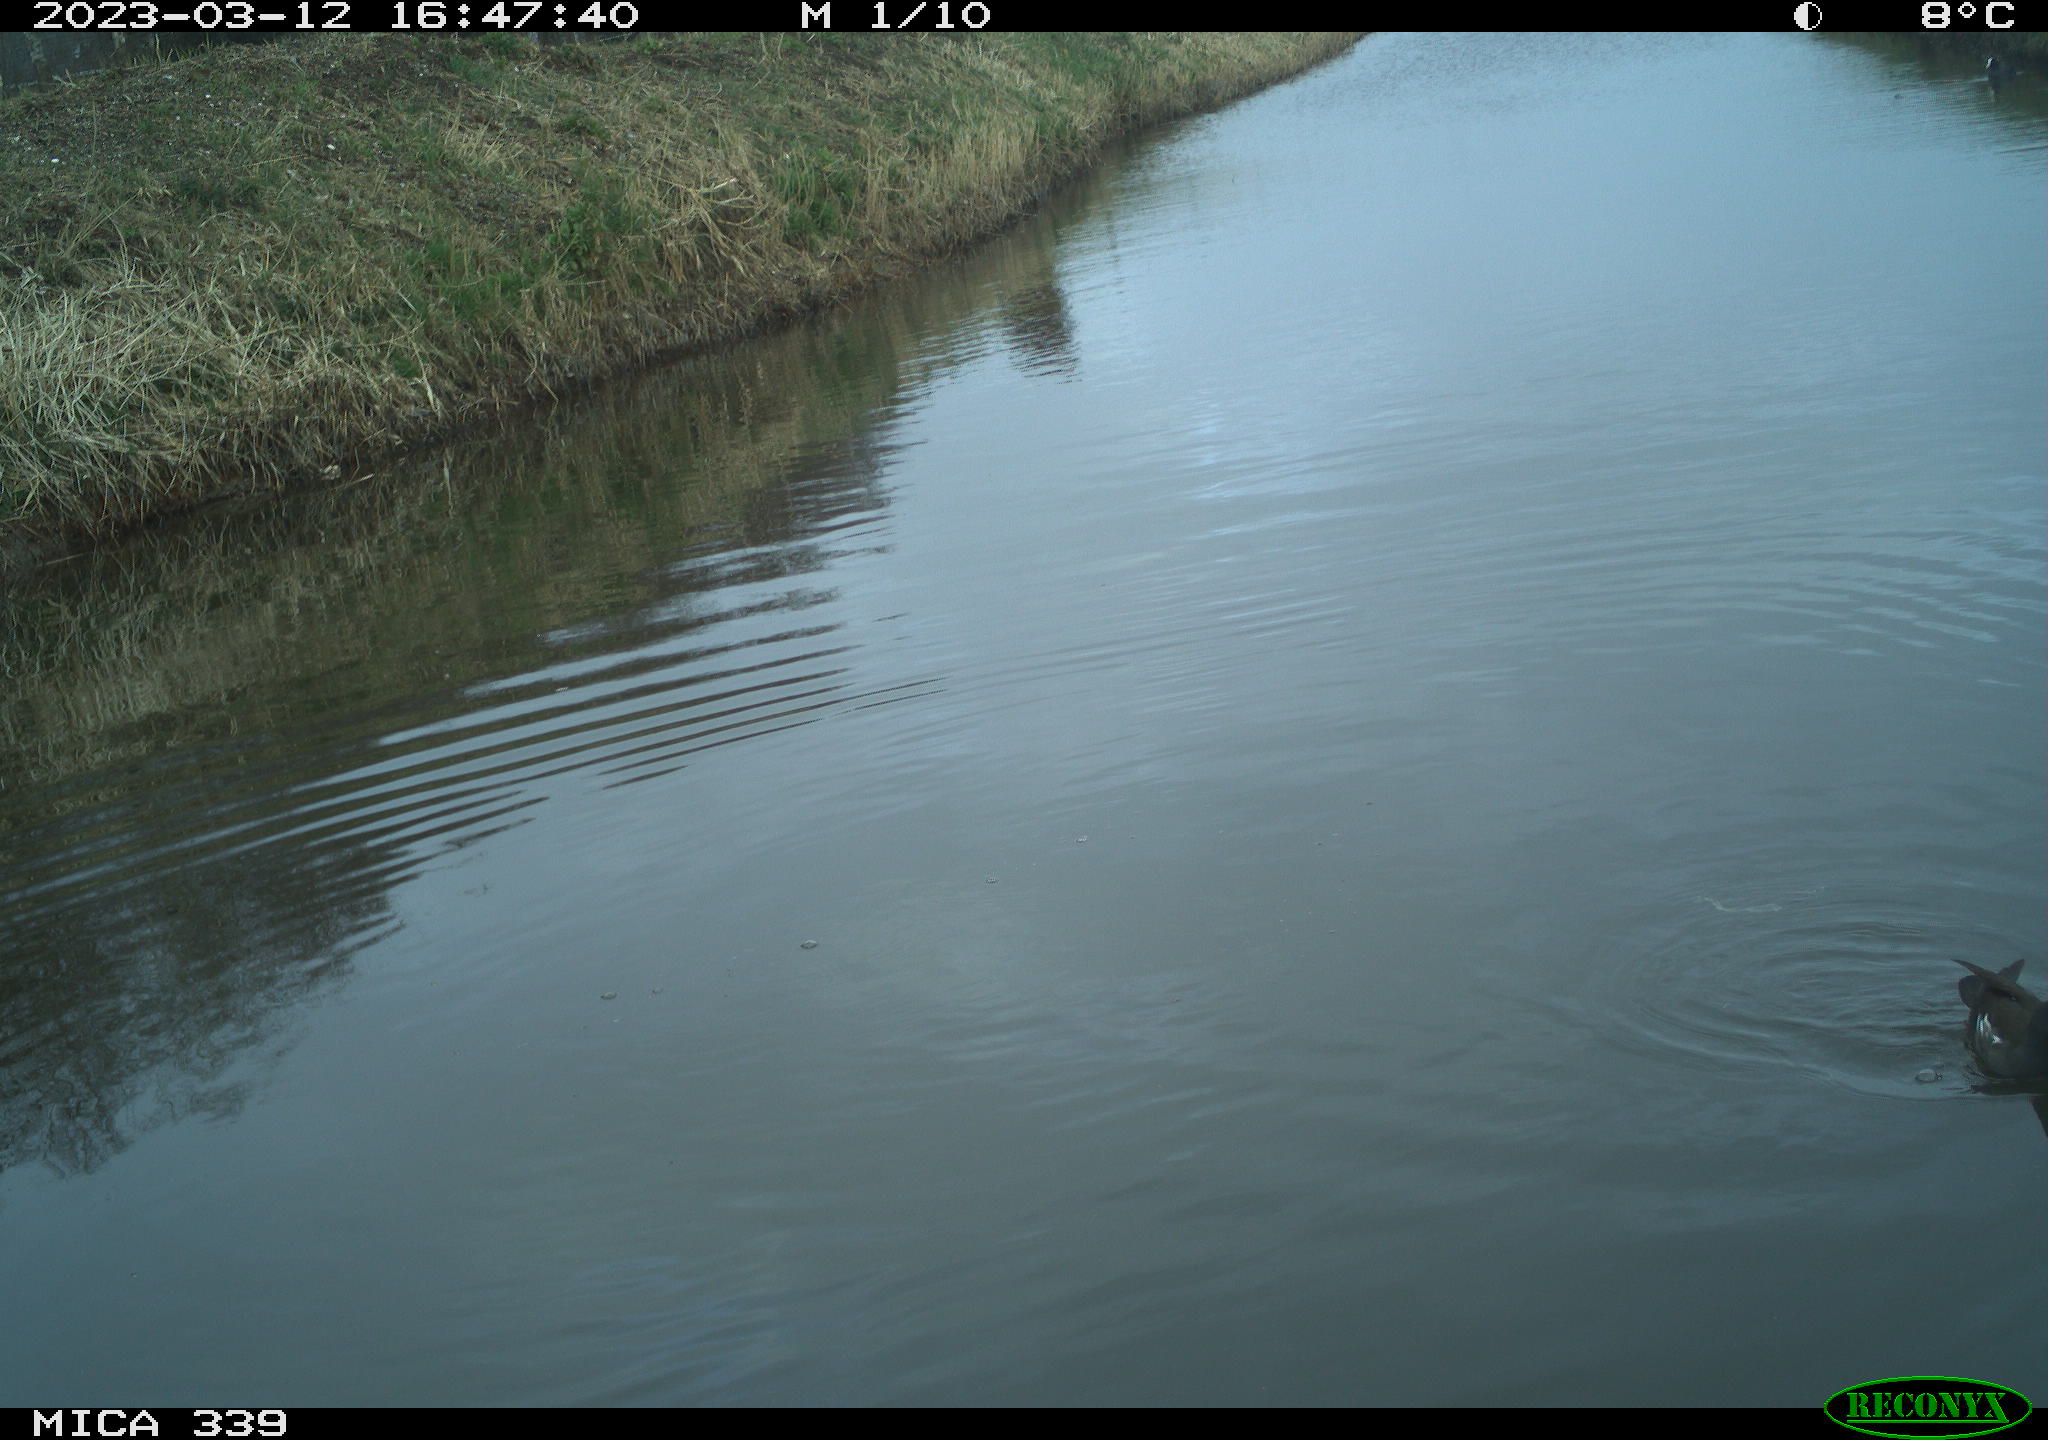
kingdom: Animalia
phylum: Chordata
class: Aves
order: Gruiformes
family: Rallidae
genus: Gallinula
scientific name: Gallinula chloropus
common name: Common moorhen
